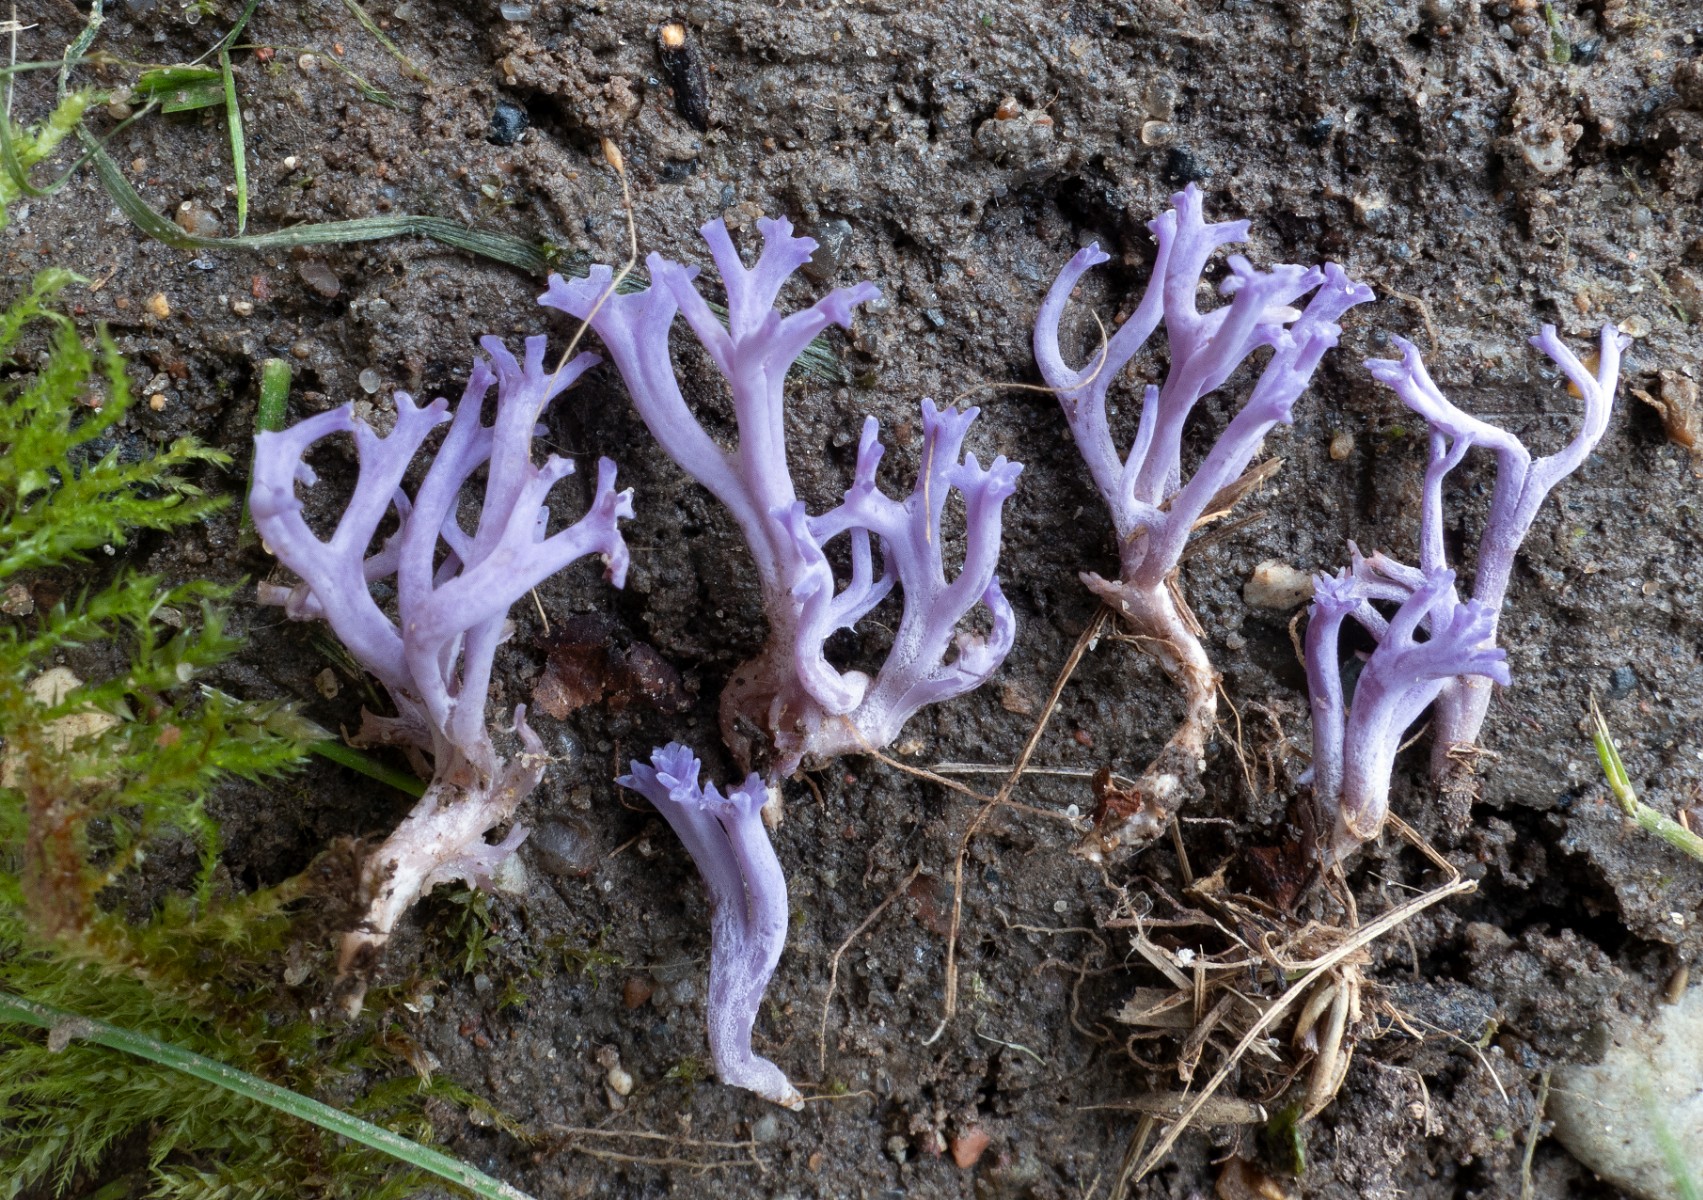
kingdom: Fungi
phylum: Basidiomycota
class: Agaricomycetes
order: Agaricales
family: Clavariaceae
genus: Ramariopsis
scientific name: Ramariopsis pulchella
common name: violet køllesvamp
